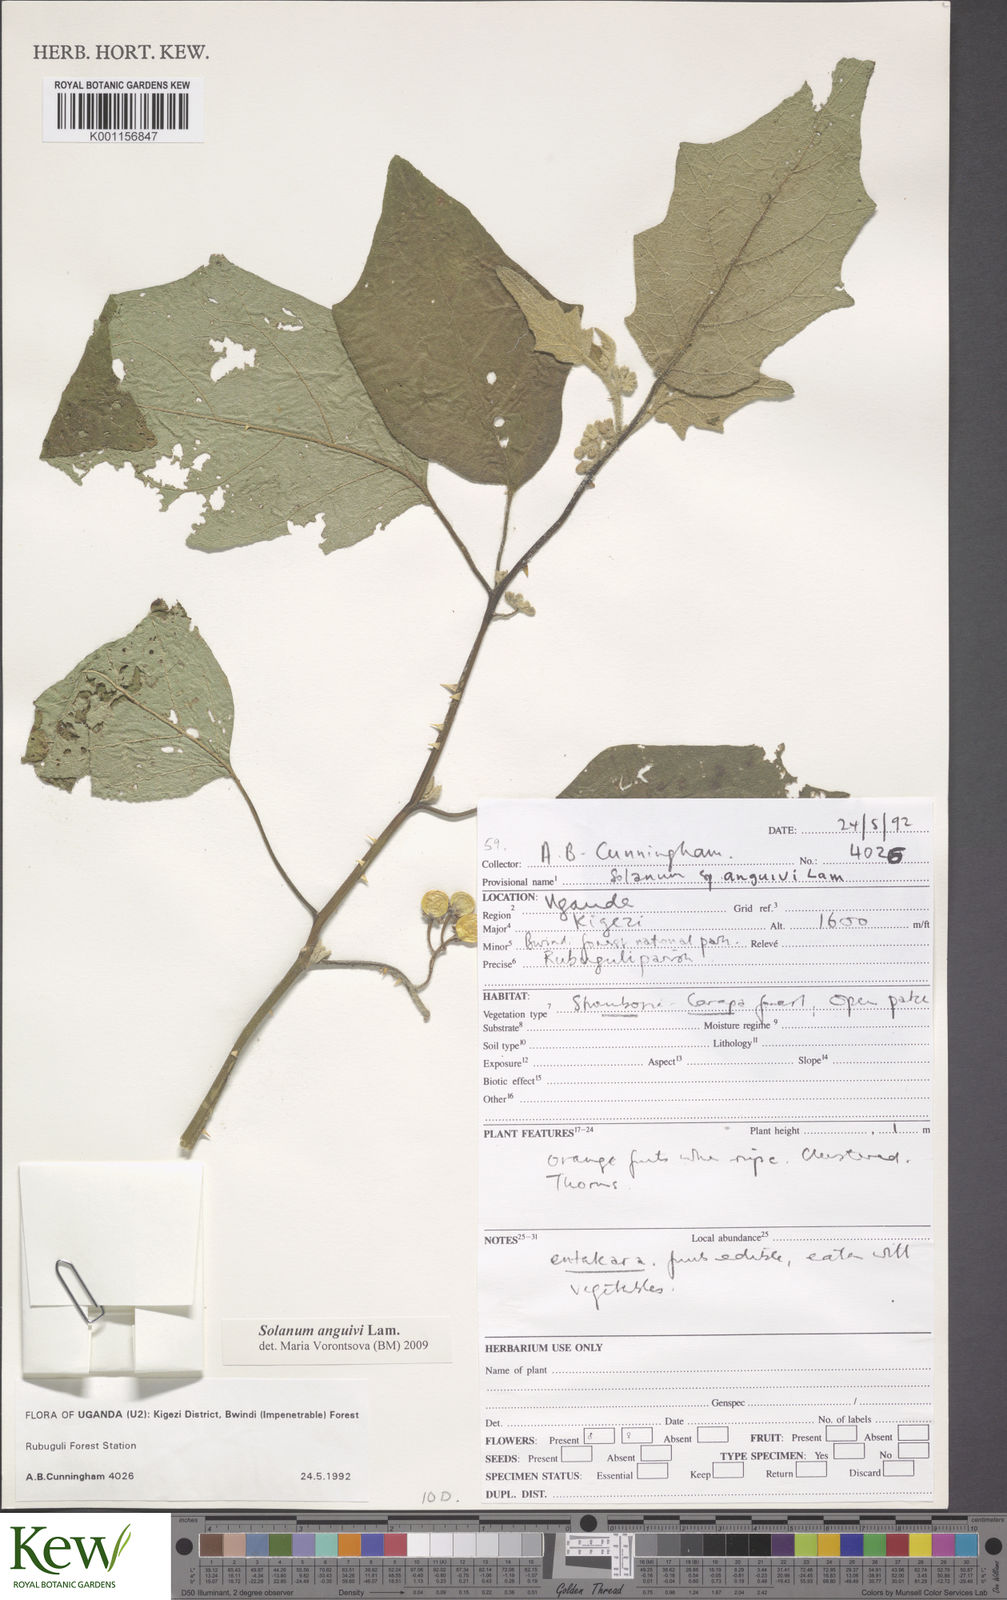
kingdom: Plantae
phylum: Tracheophyta
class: Magnoliopsida
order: Solanales
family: Solanaceae
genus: Solanum
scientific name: Solanum anguivi
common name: Forest bitterberry
